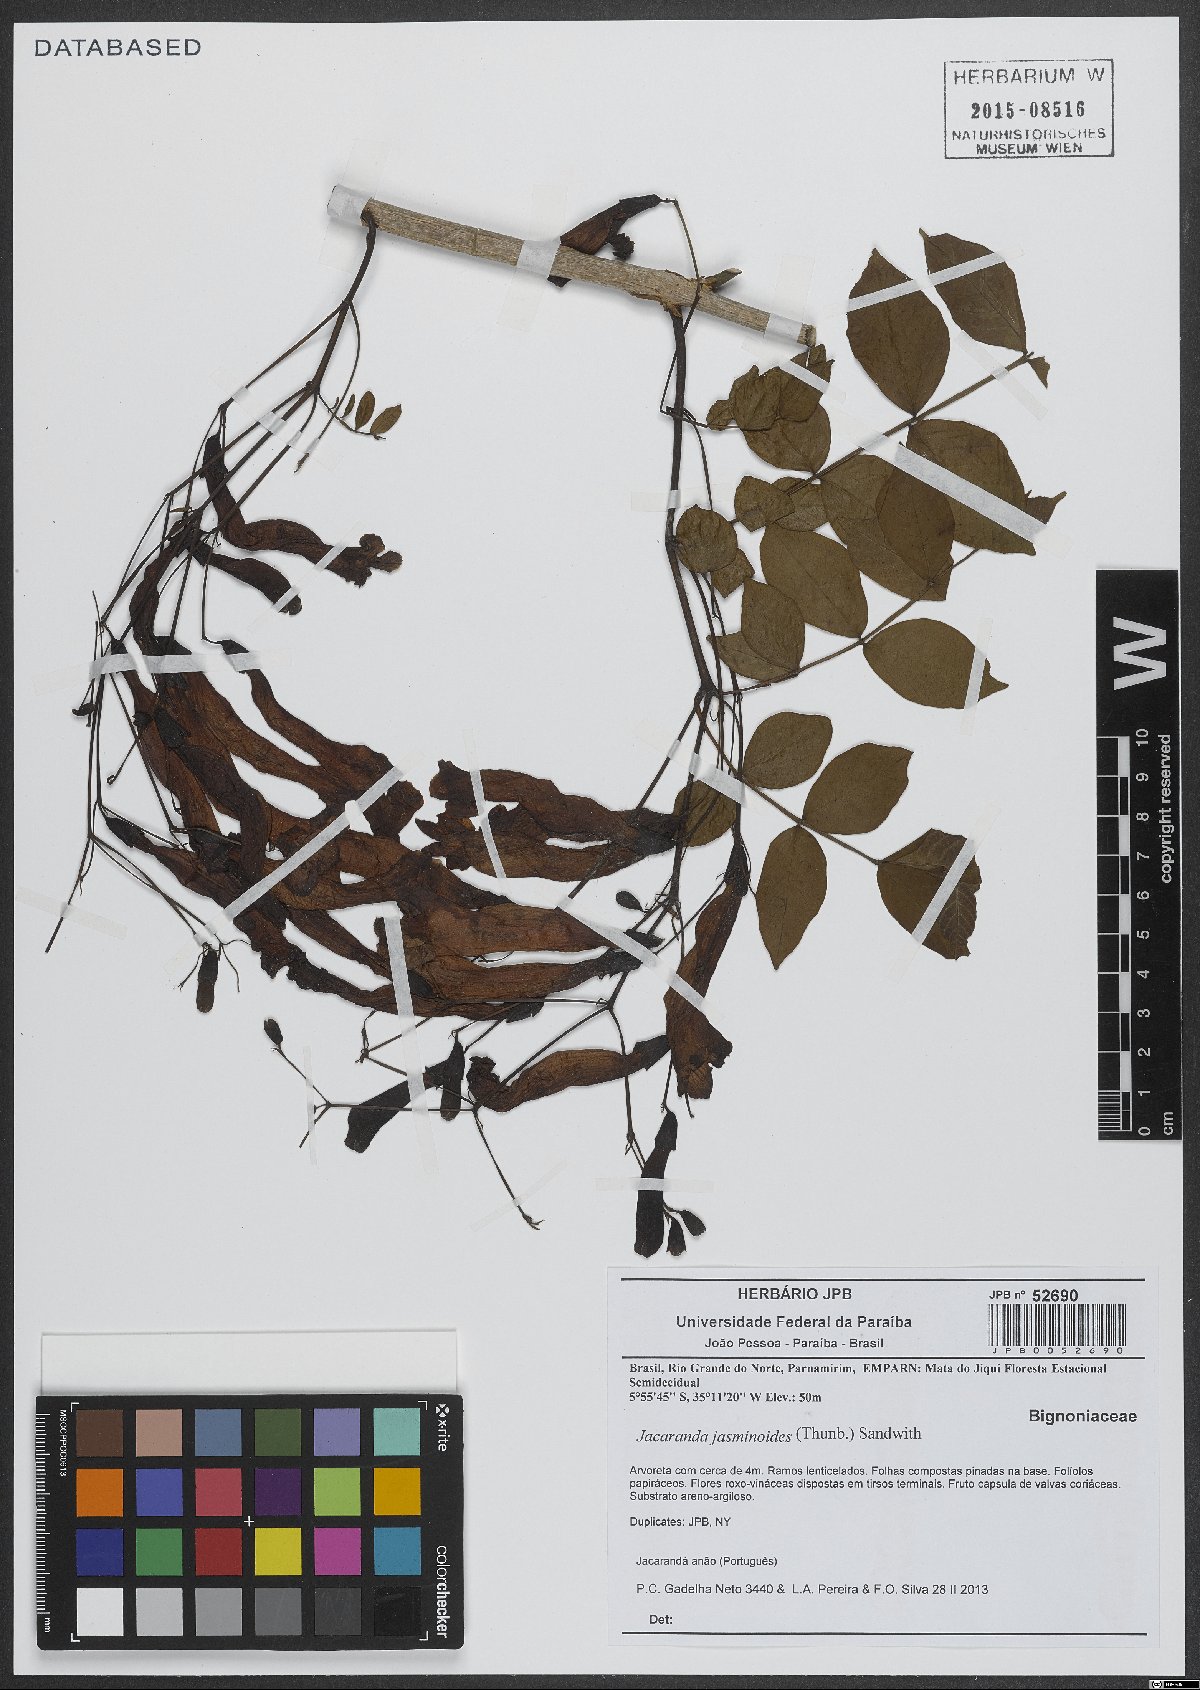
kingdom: Plantae
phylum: Tracheophyta
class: Magnoliopsida
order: Lamiales
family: Bignoniaceae
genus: Jacaranda
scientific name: Jacaranda jasminoides
